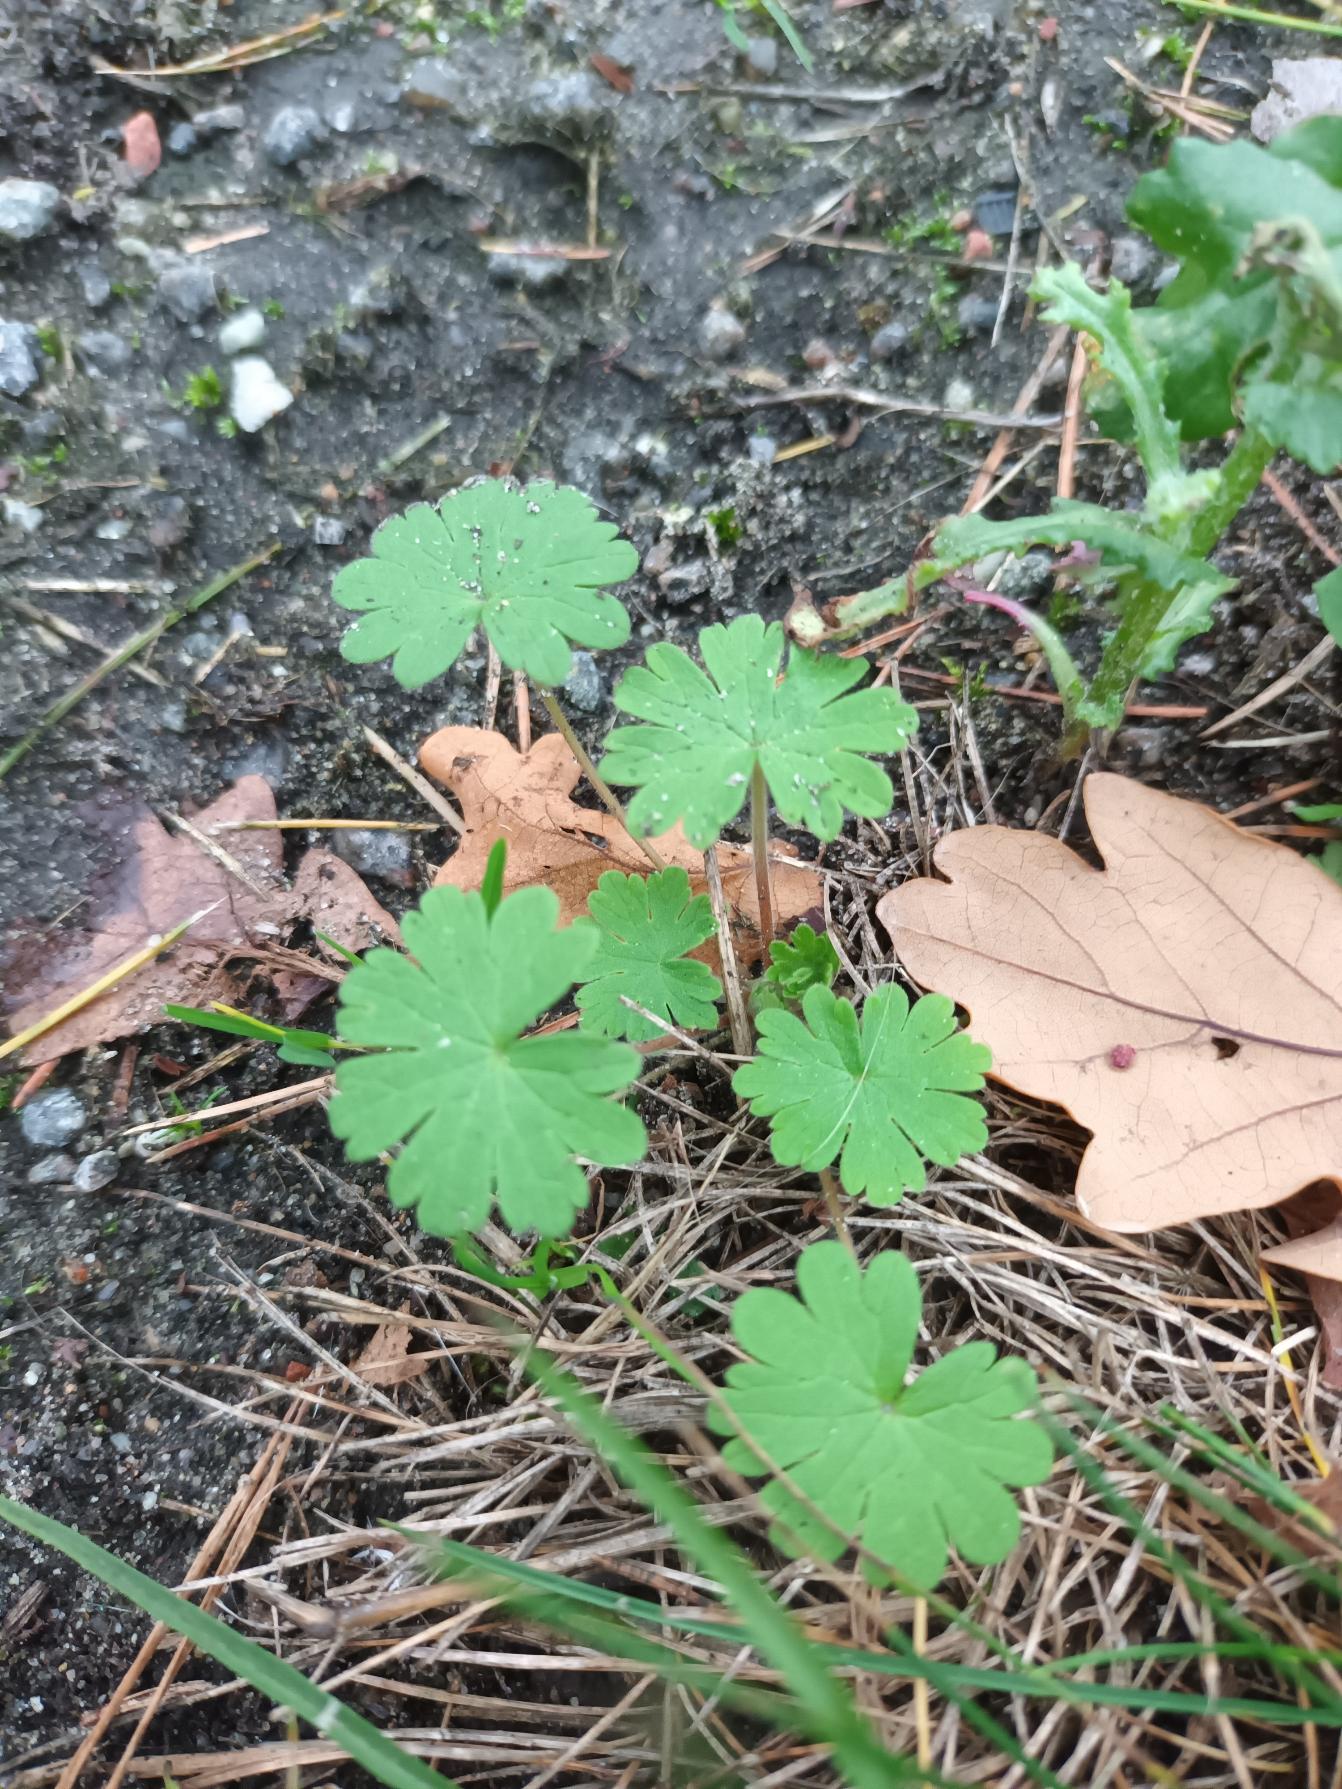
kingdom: Plantae
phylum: Tracheophyta
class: Magnoliopsida
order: Geraniales
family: Geraniaceae
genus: Geranium
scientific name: Geranium pusillum
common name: Liden storkenæb
